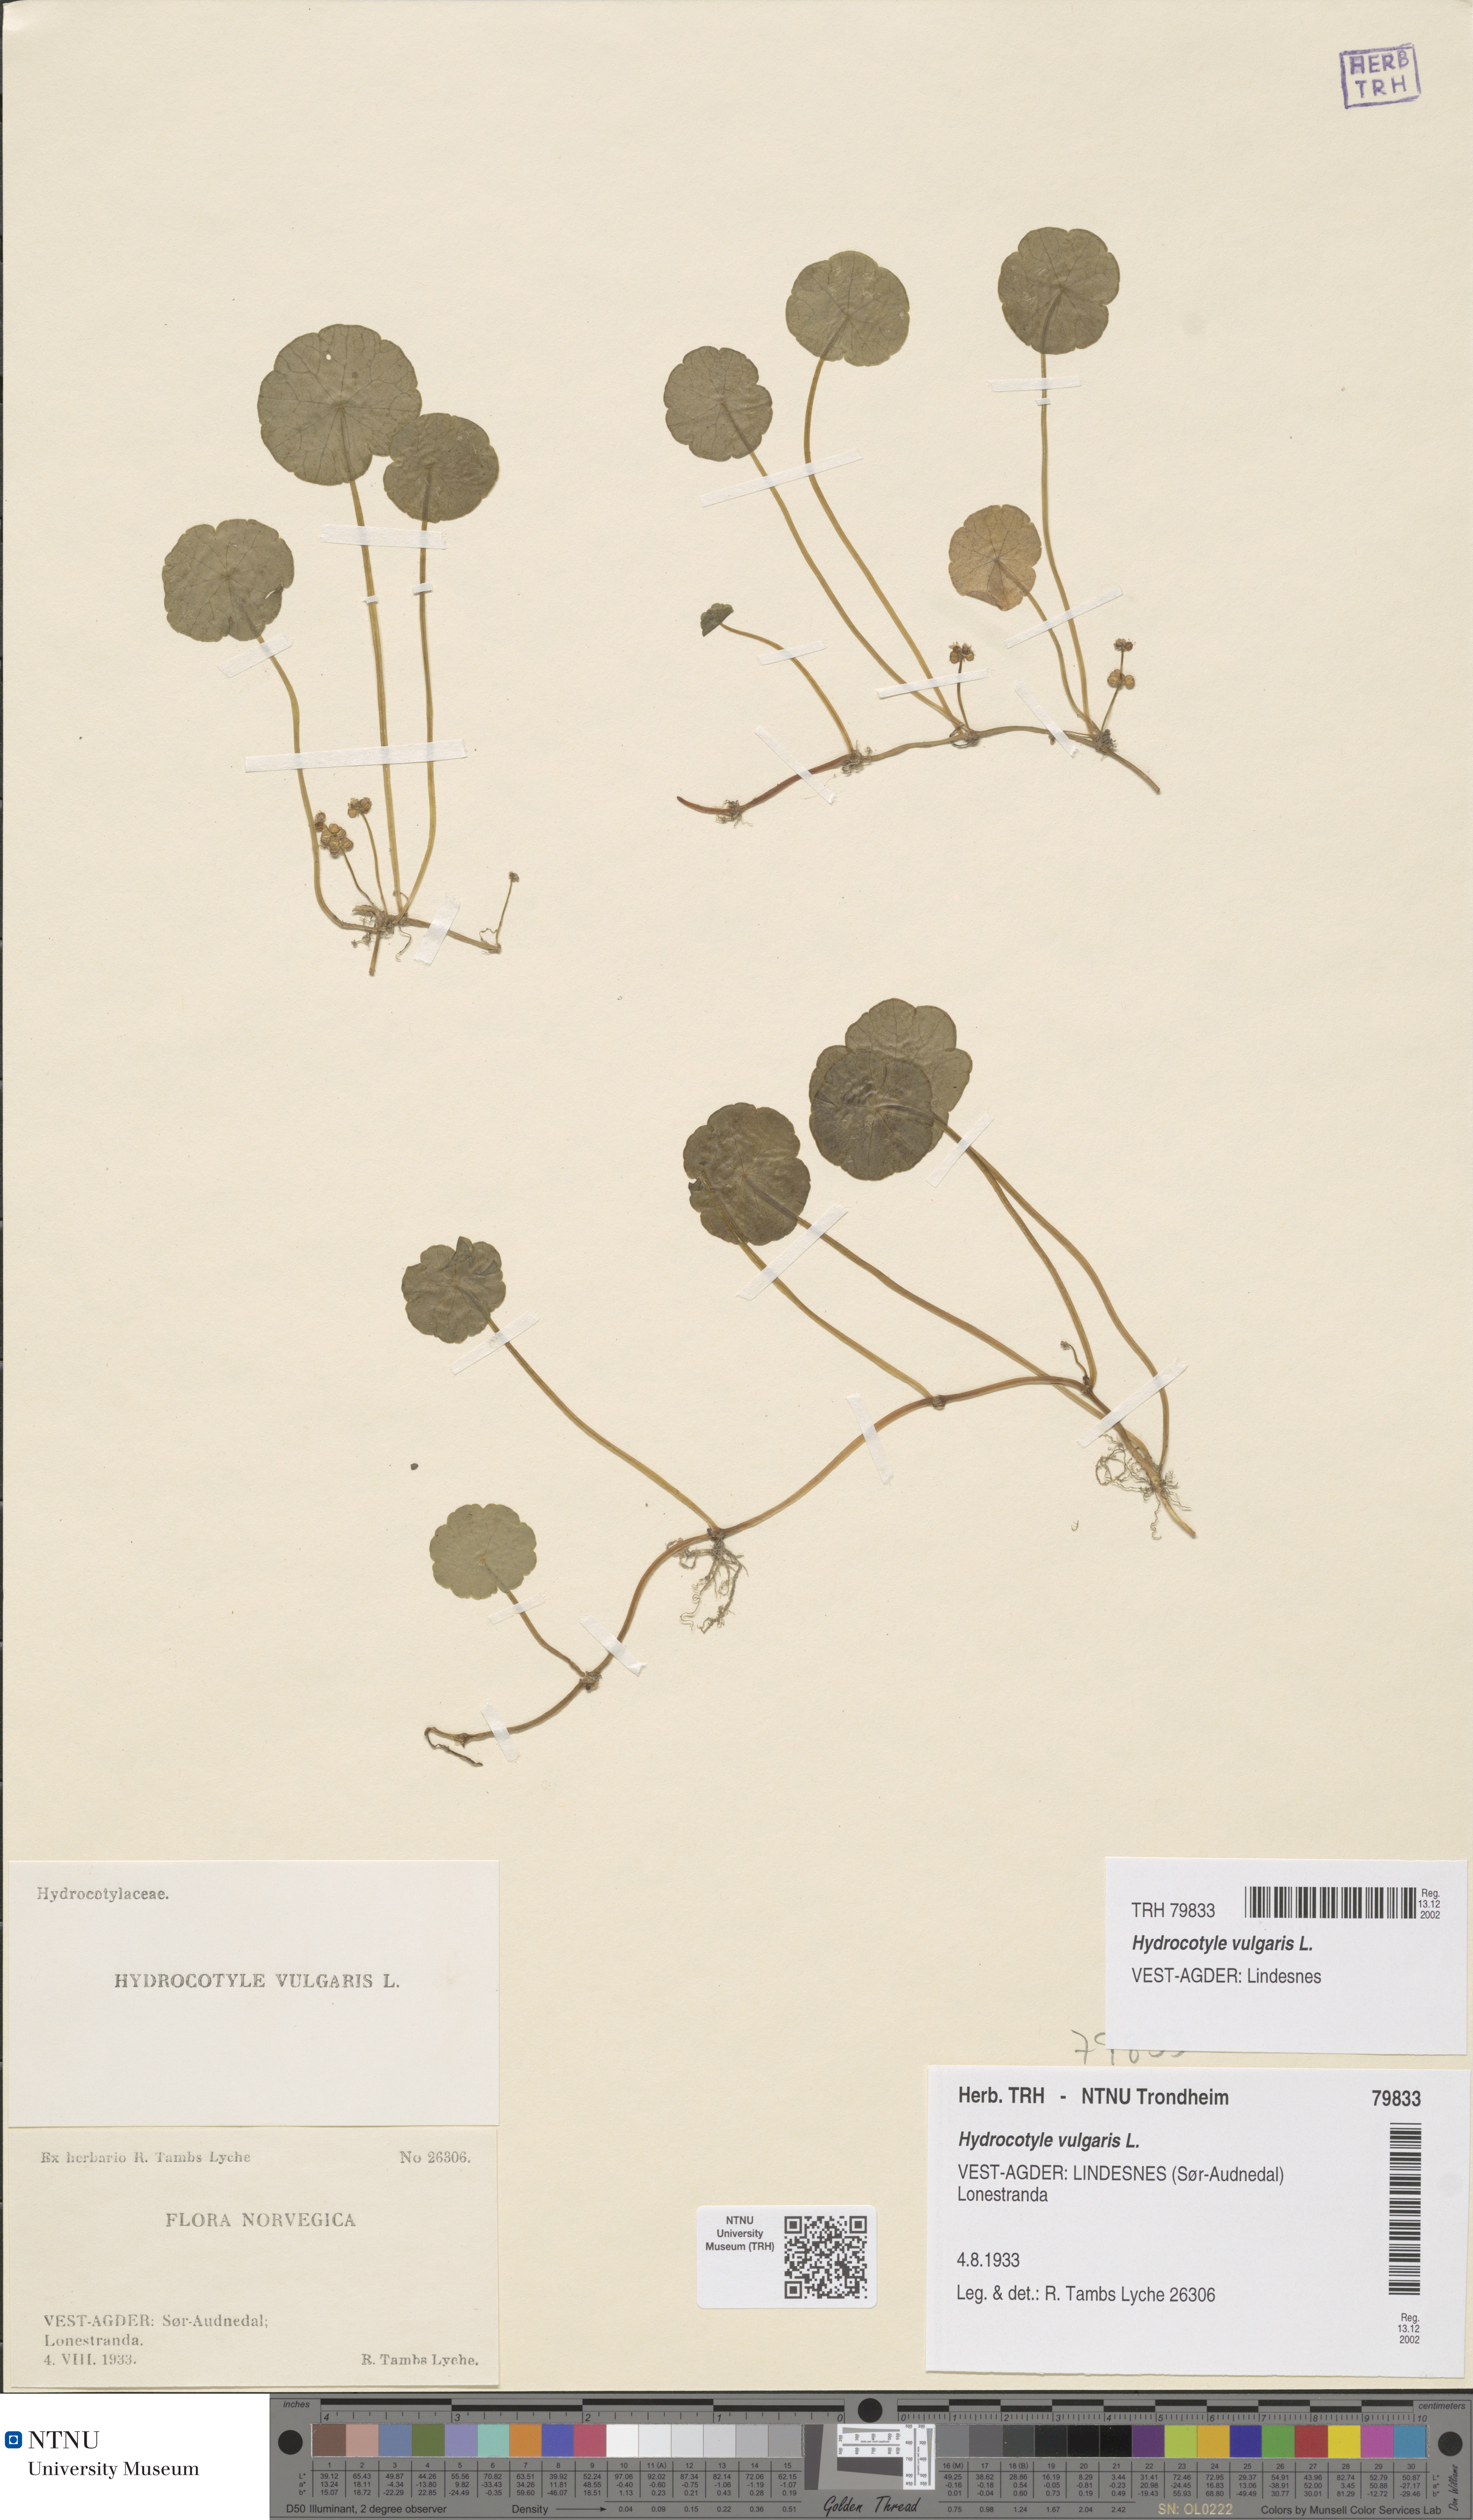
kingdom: Plantae
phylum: Tracheophyta
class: Magnoliopsida
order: Apiales
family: Araliaceae
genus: Hydrocotyle
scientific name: Hydrocotyle vulgaris
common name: Marsh pennywort
